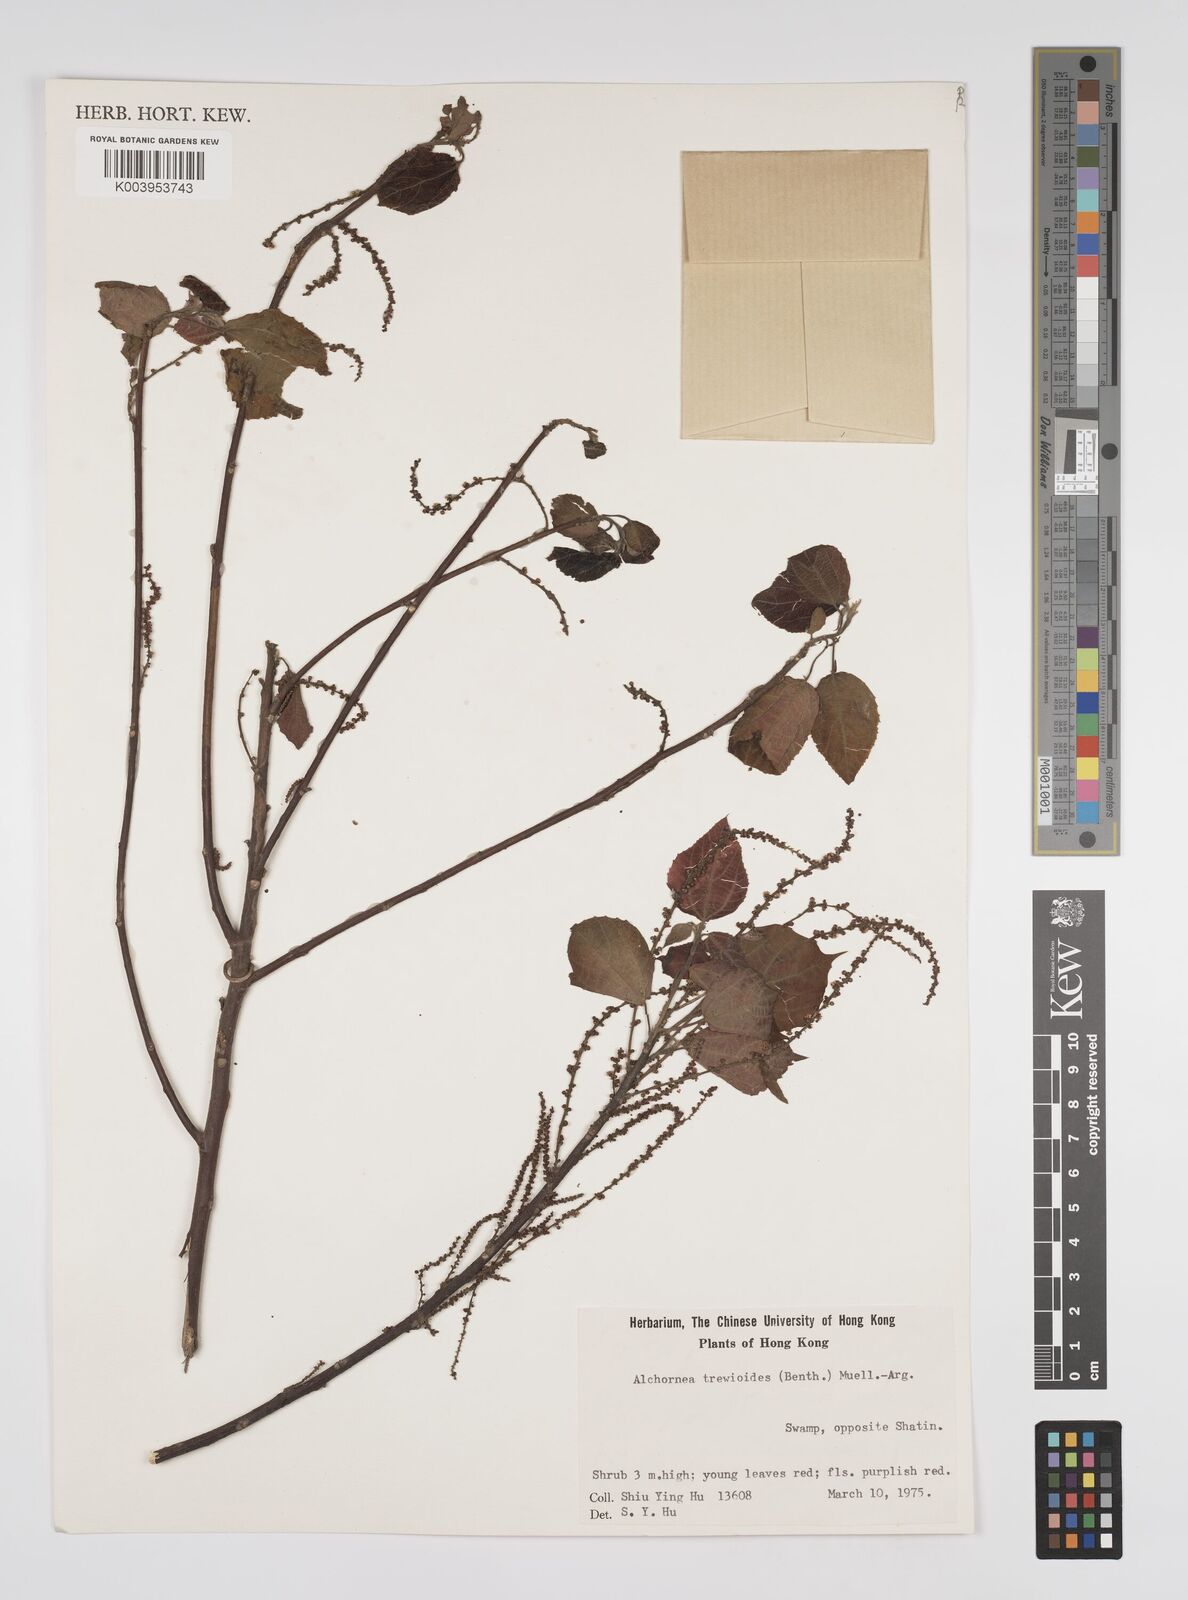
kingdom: Plantae
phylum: Tracheophyta
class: Magnoliopsida
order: Malpighiales
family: Euphorbiaceae
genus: Alchornea
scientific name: Alchornea trewioides
